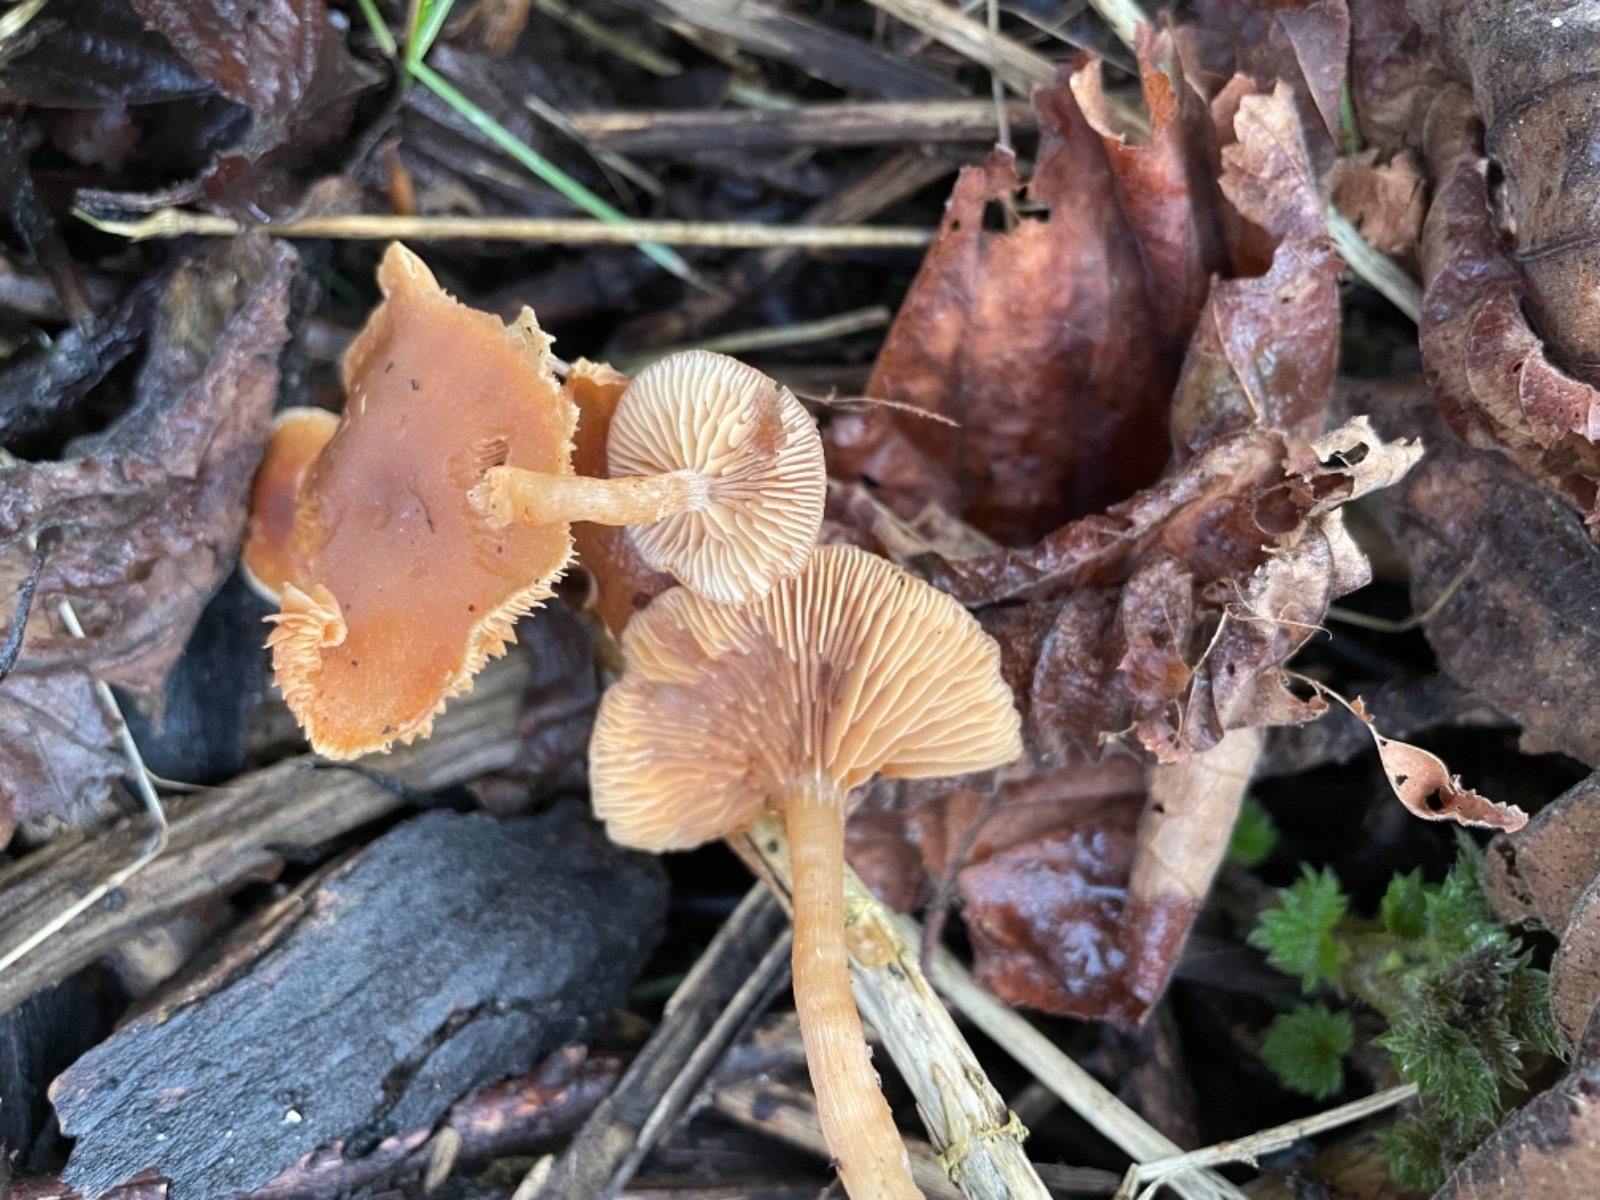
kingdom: Fungi
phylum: Basidiomycota
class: Agaricomycetes
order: Agaricales
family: Tubariaceae
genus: Tubaria
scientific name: Tubaria furfuracea
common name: kliddet fnughat
